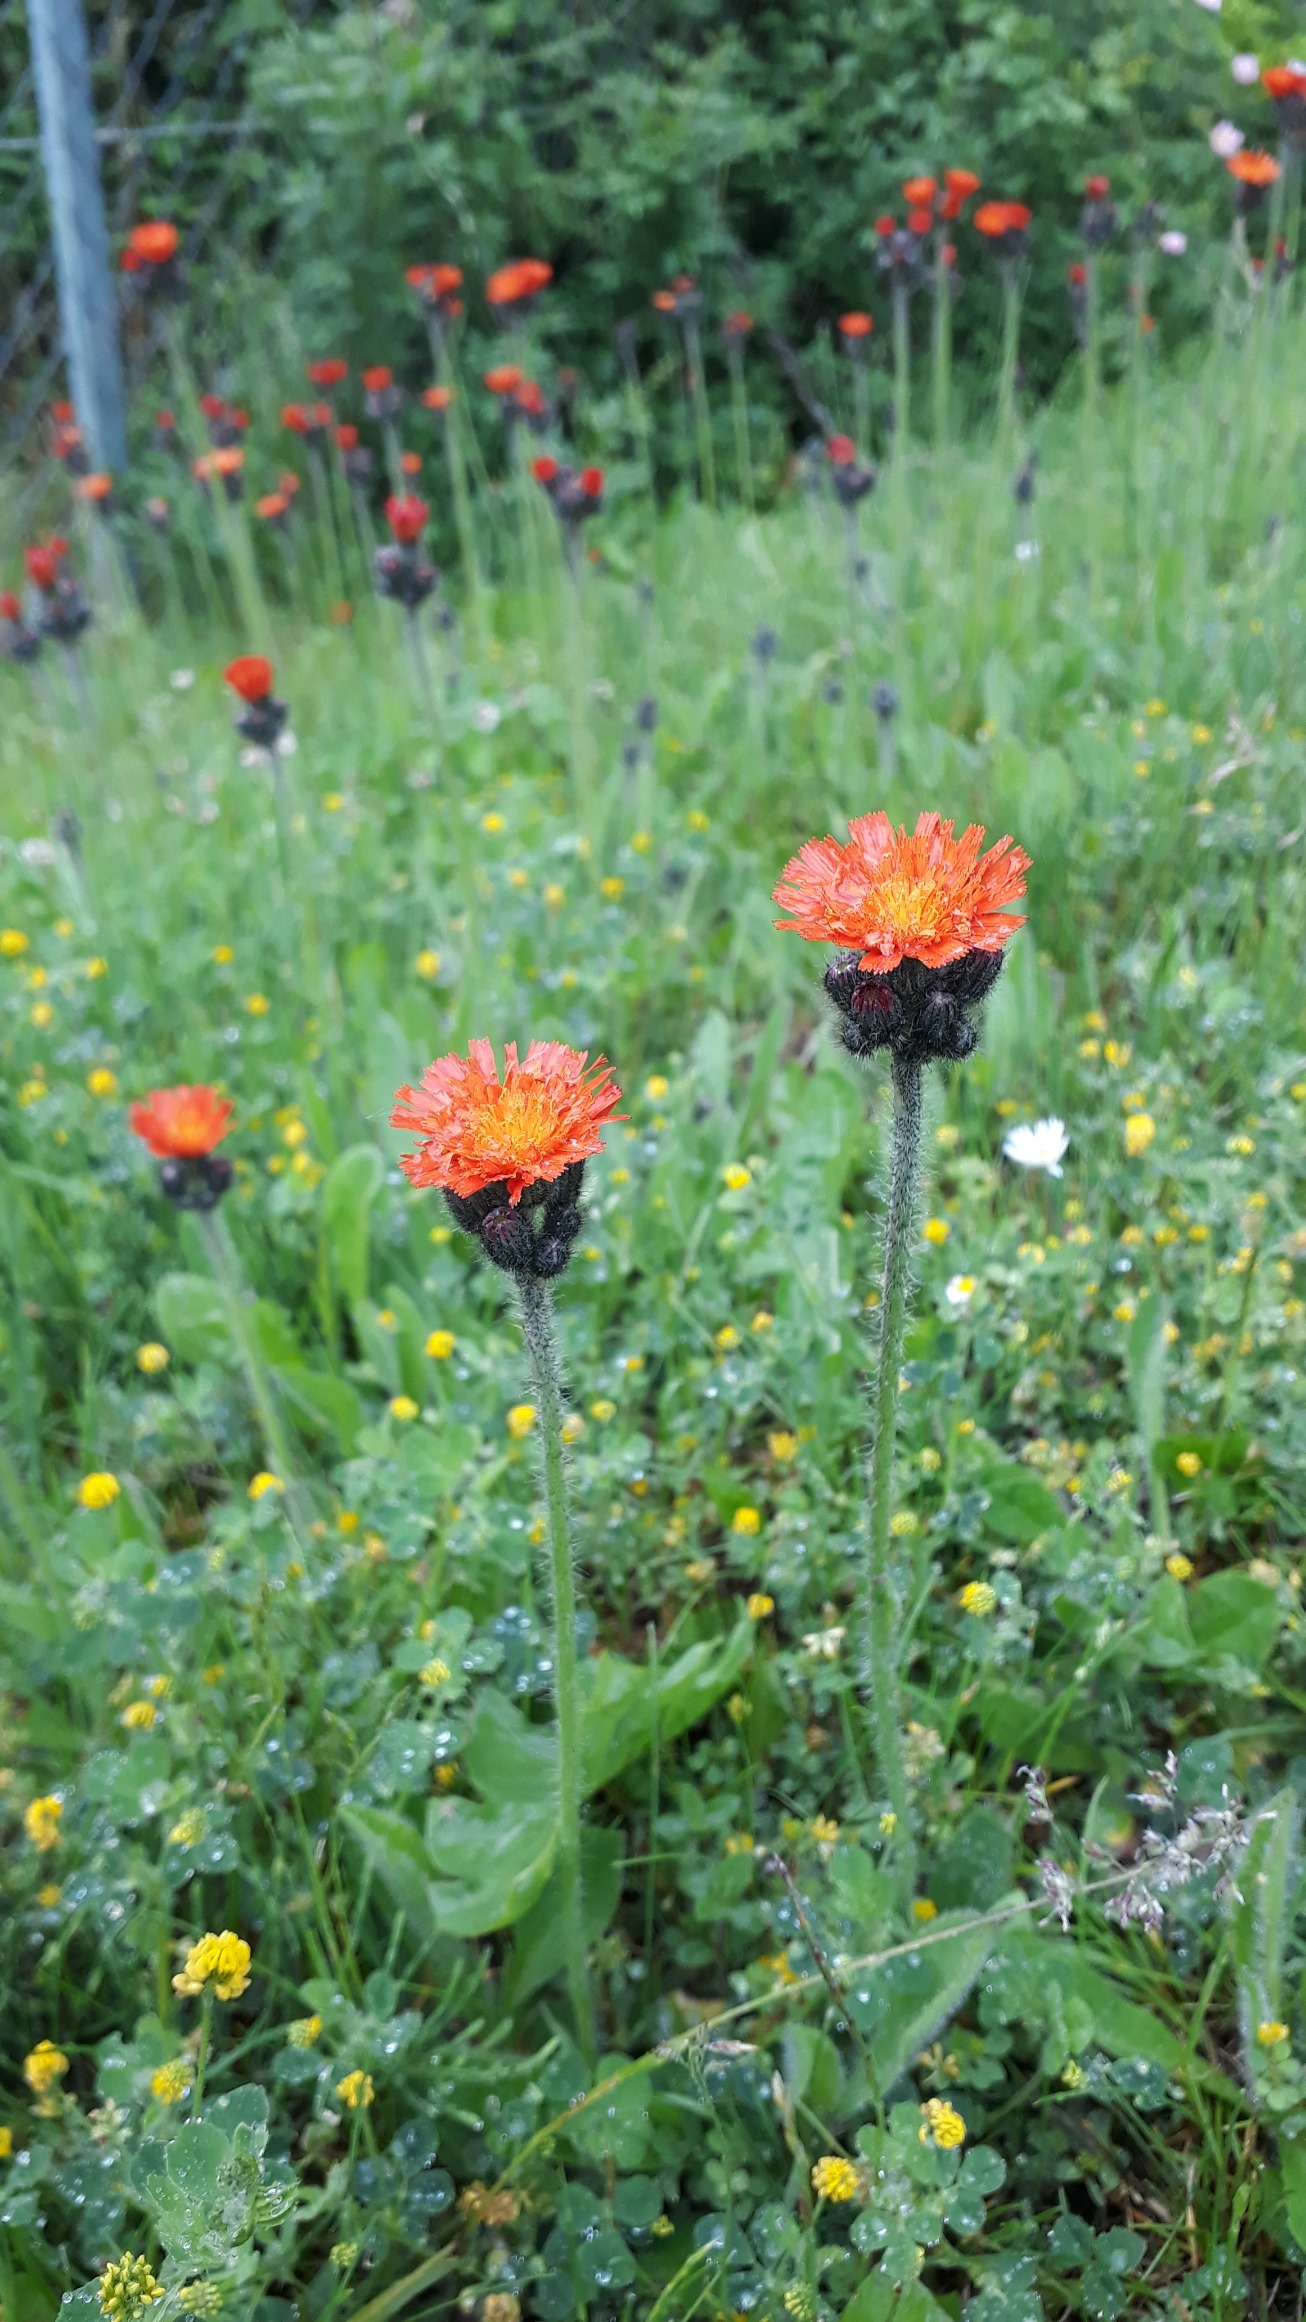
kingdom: Plantae
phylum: Tracheophyta
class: Magnoliopsida
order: Asterales
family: Asteraceae
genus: Pilosella
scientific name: Pilosella aurantiaca
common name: Pomerans-høgeurt
